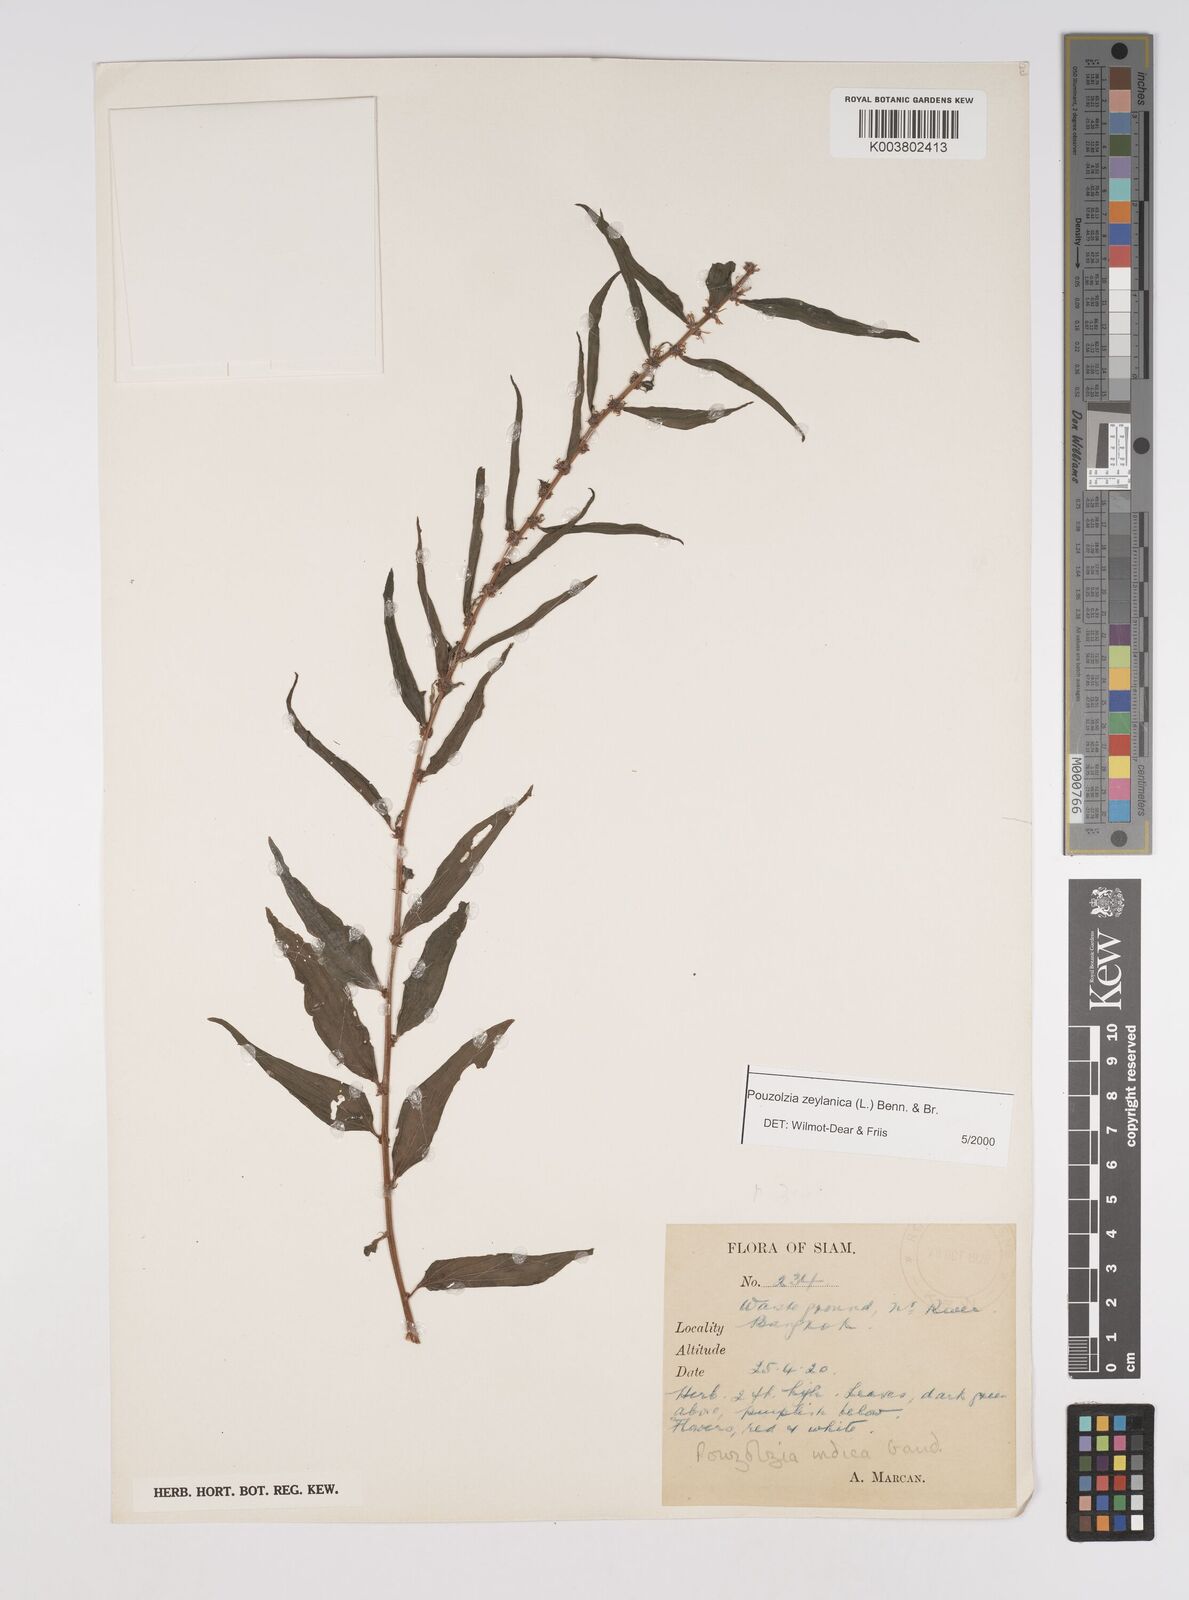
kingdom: Plantae
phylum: Tracheophyta
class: Magnoliopsida
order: Rosales
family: Urticaceae
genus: Pouzolzia
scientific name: Pouzolzia zeylanica
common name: Graceful pouzolzsbush
